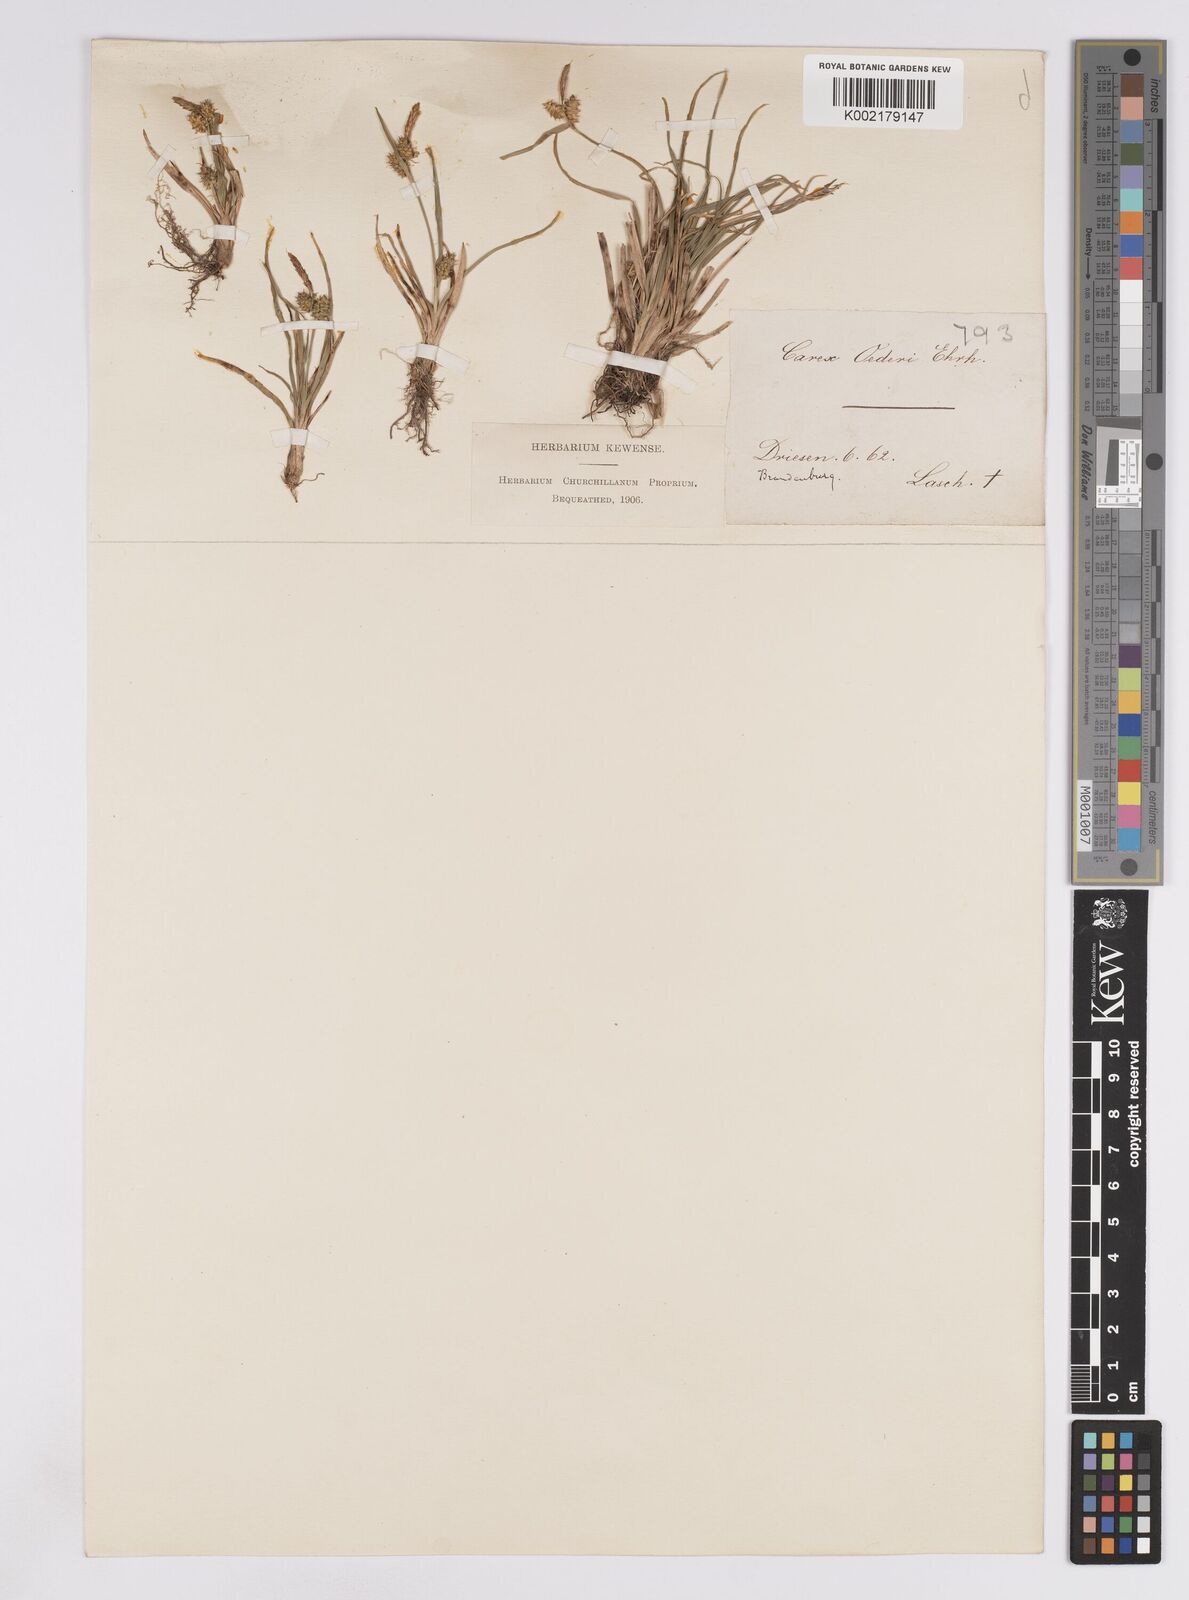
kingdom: Plantae
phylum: Tracheophyta
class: Liliopsida
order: Poales
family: Cyperaceae
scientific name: Cyperaceae
